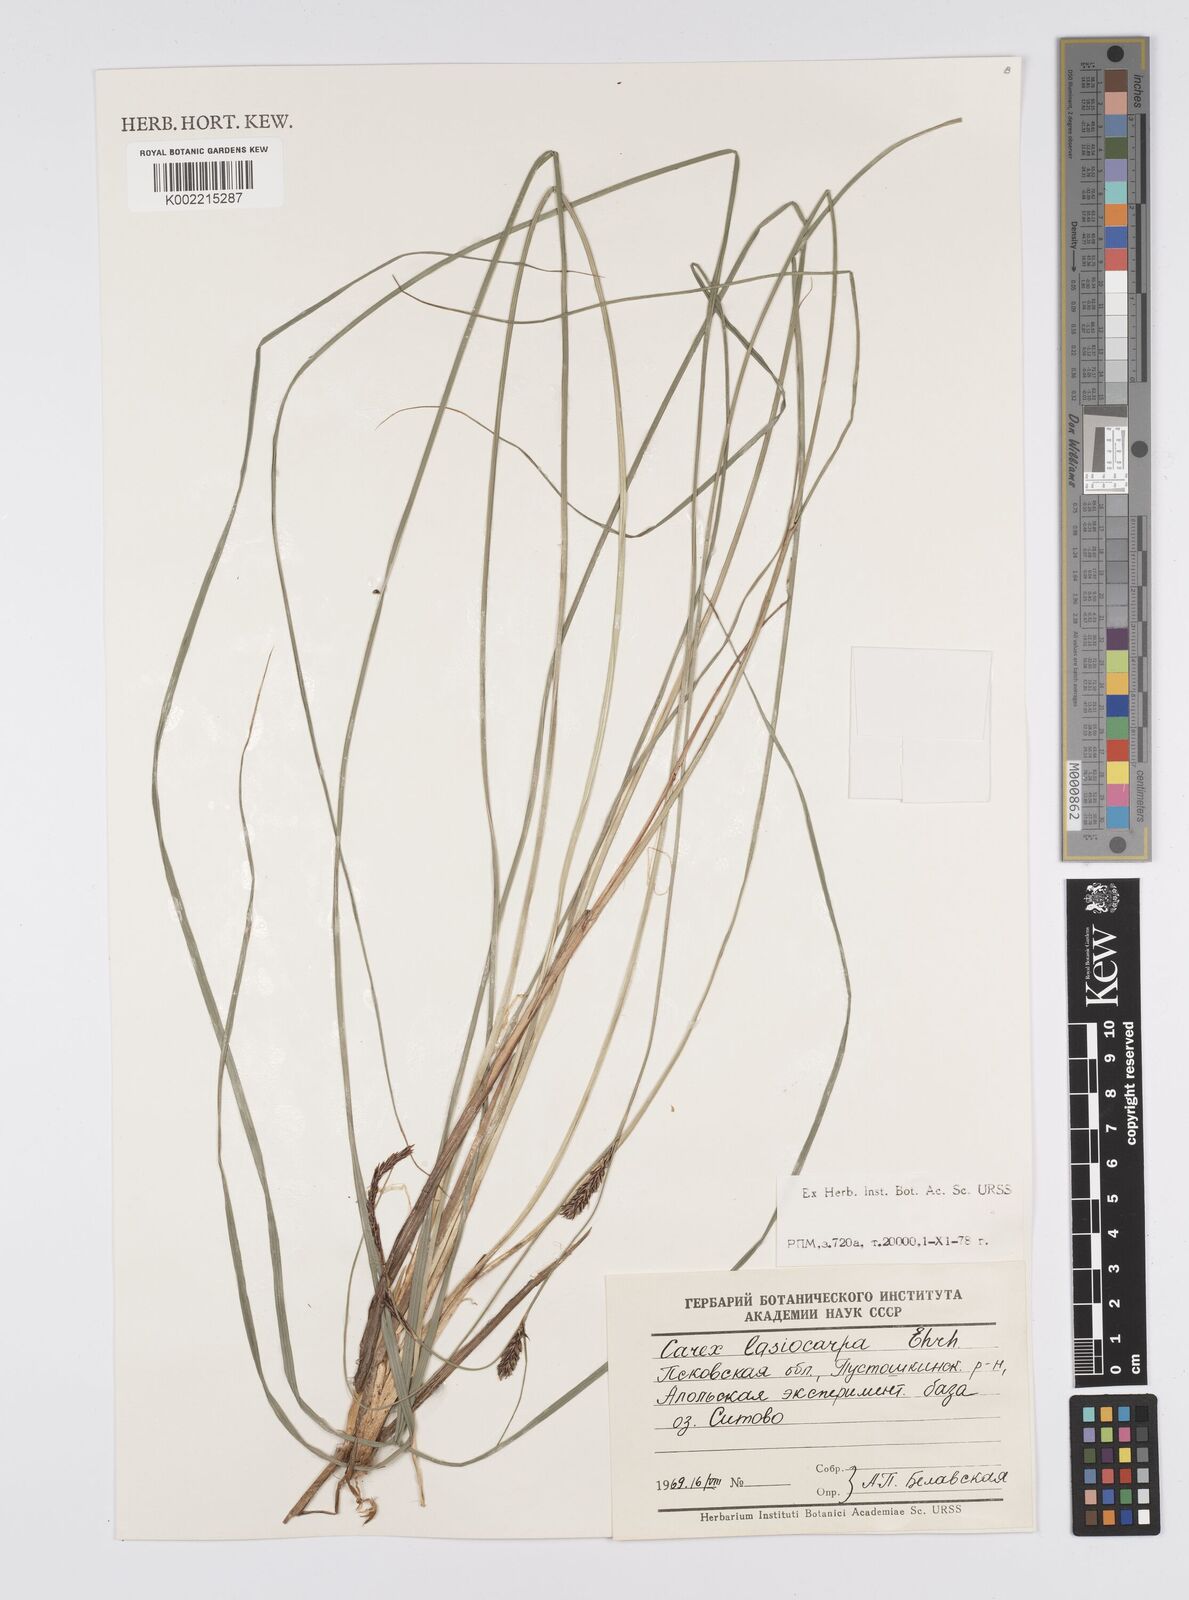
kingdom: Plantae
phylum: Tracheophyta
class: Liliopsida
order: Poales
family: Cyperaceae
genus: Carex
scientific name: Carex lasiocarpa
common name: Slender sedge
